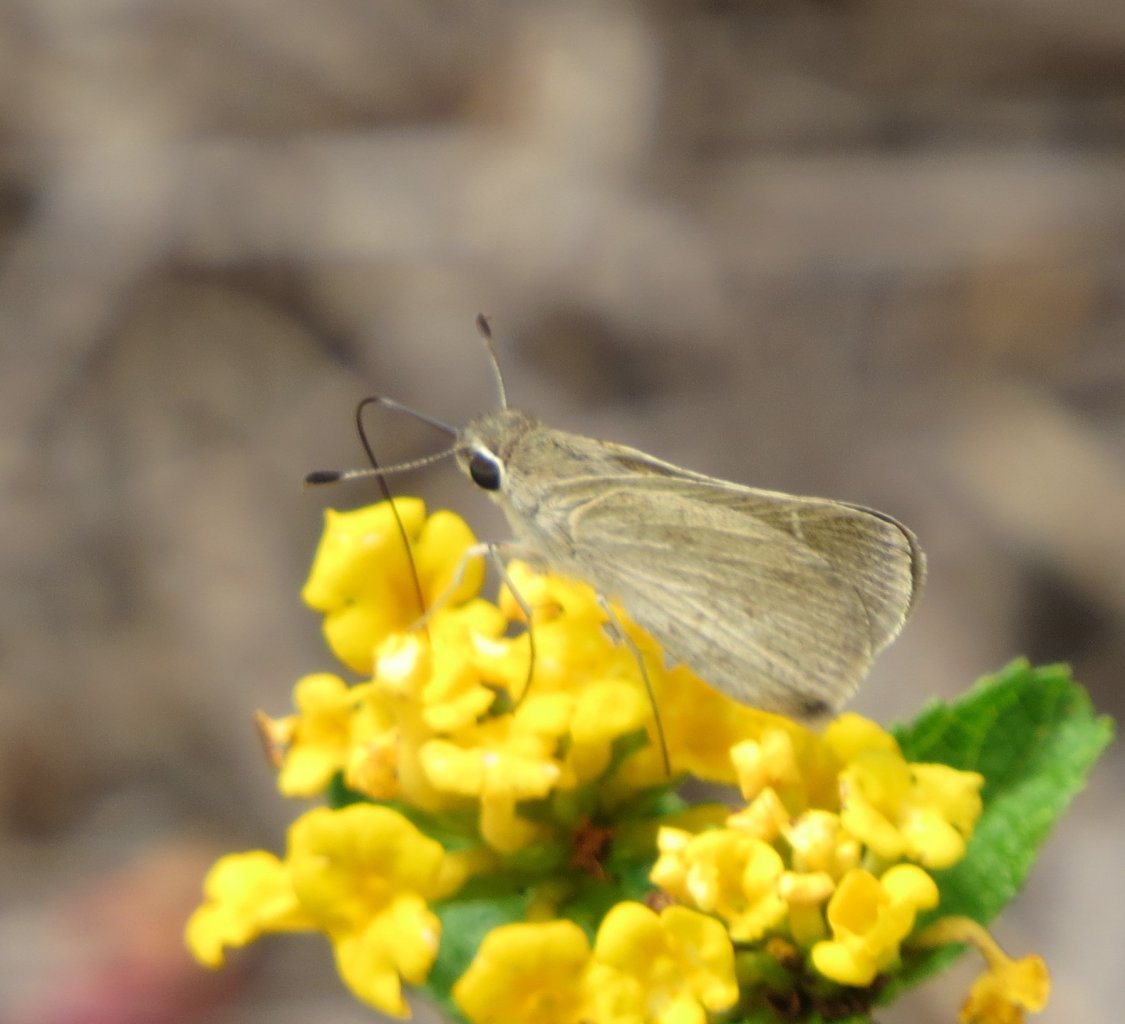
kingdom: Animalia
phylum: Arthropoda
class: Insecta
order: Lepidoptera
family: Hesperiidae
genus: Lerodea
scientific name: Lerodea eufala
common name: Eufala Skipper
